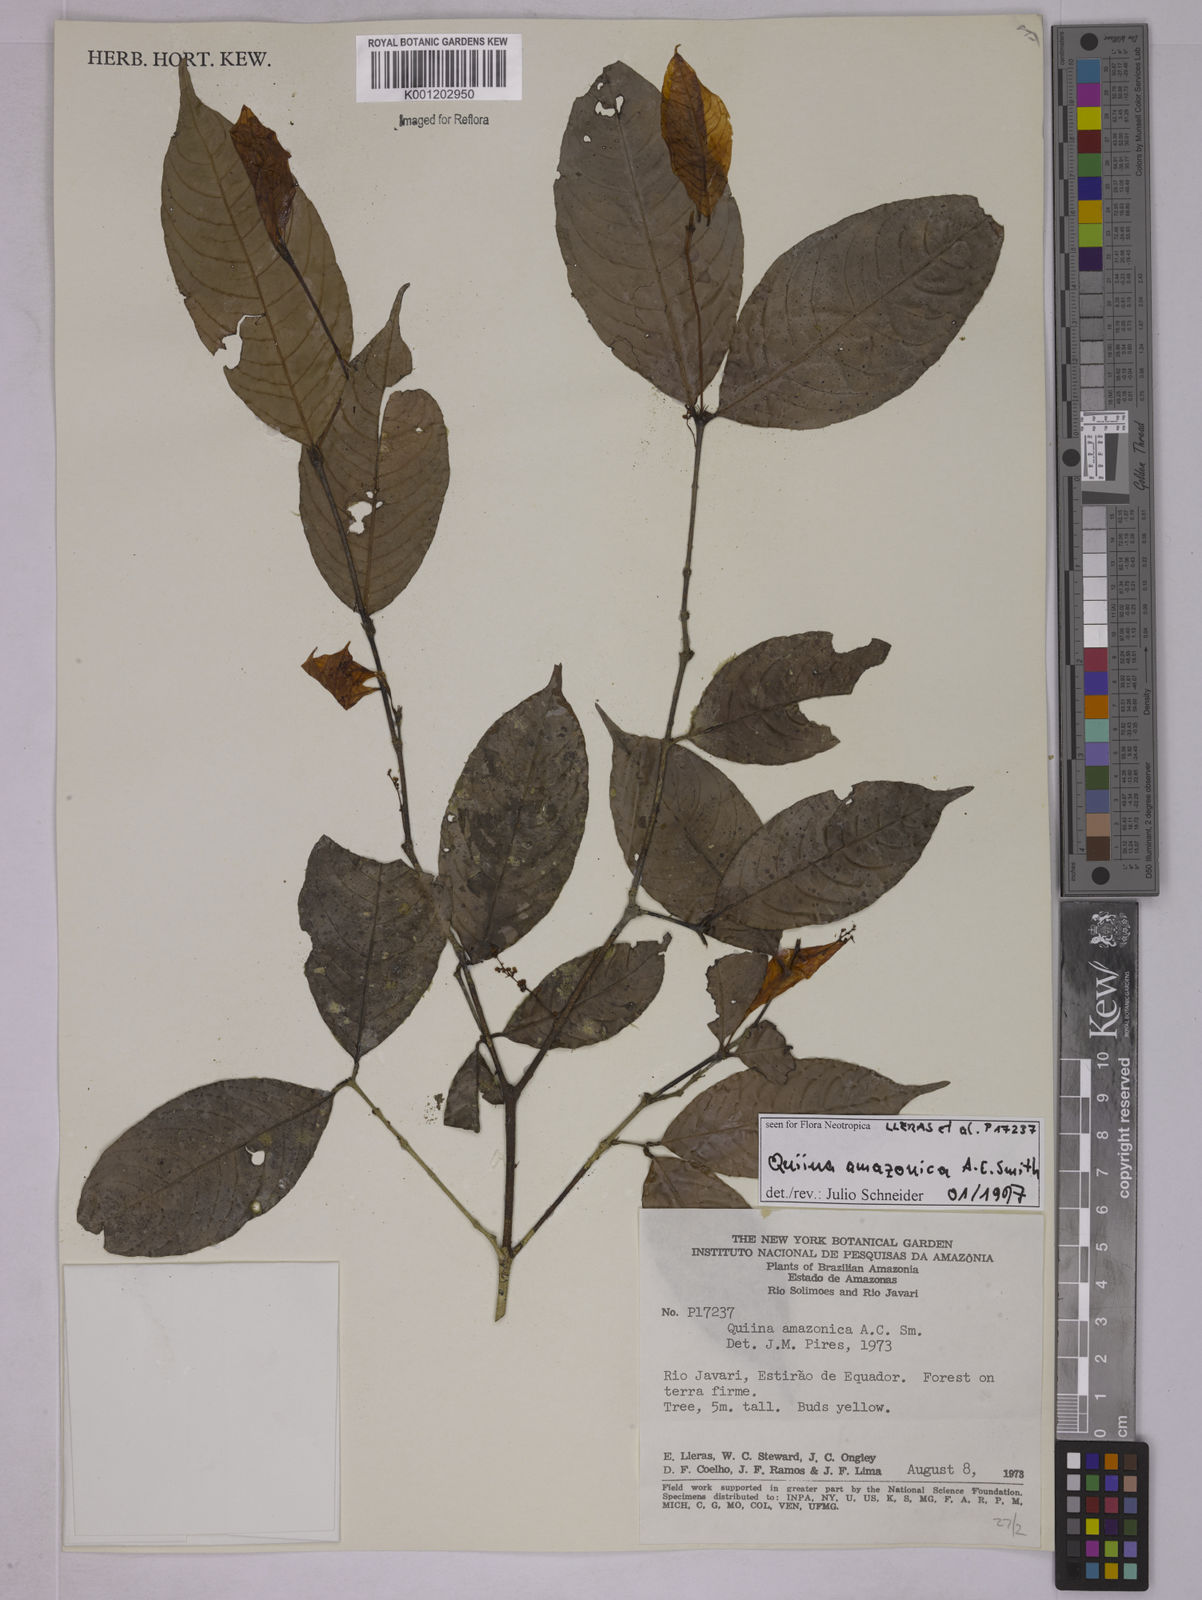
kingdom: Plantae
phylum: Tracheophyta
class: Magnoliopsida
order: Malpighiales
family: Quiinaceae
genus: Quiina
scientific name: Quiina amazonica
